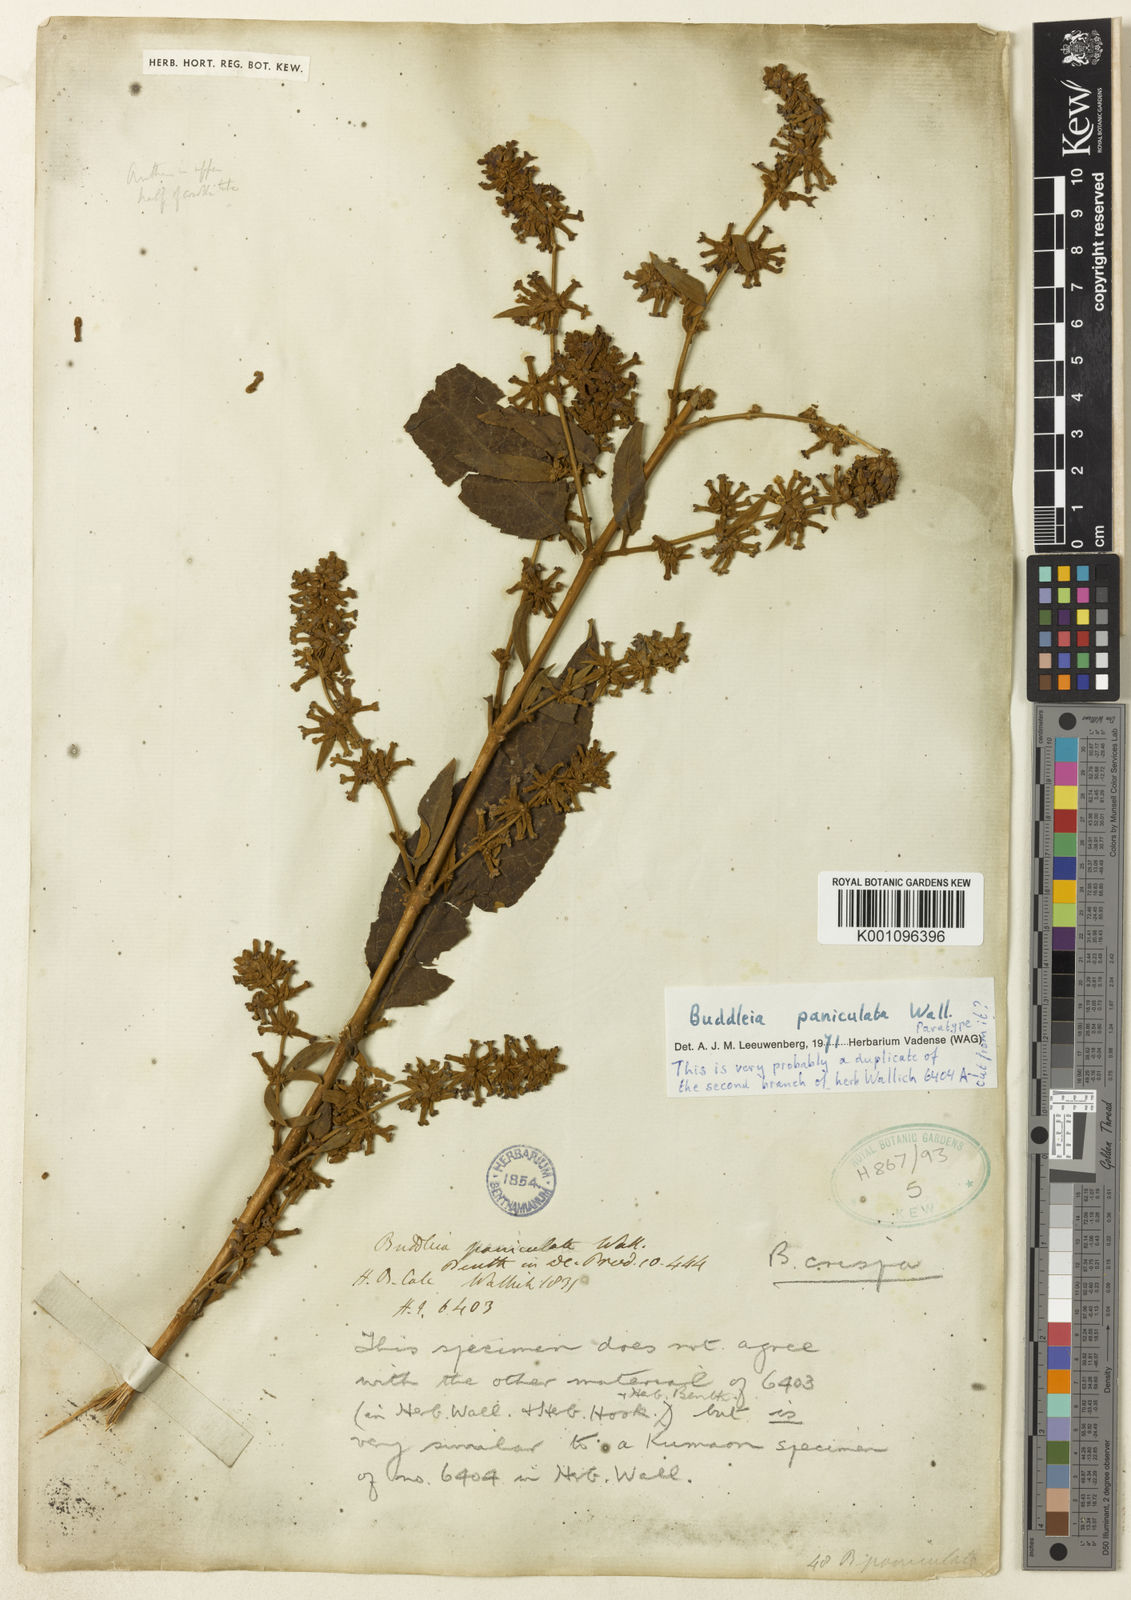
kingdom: Plantae
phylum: Tracheophyta
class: Magnoliopsida
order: Lamiales
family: Scrophulariaceae
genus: Buddleja
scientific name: Buddleja paniculata
